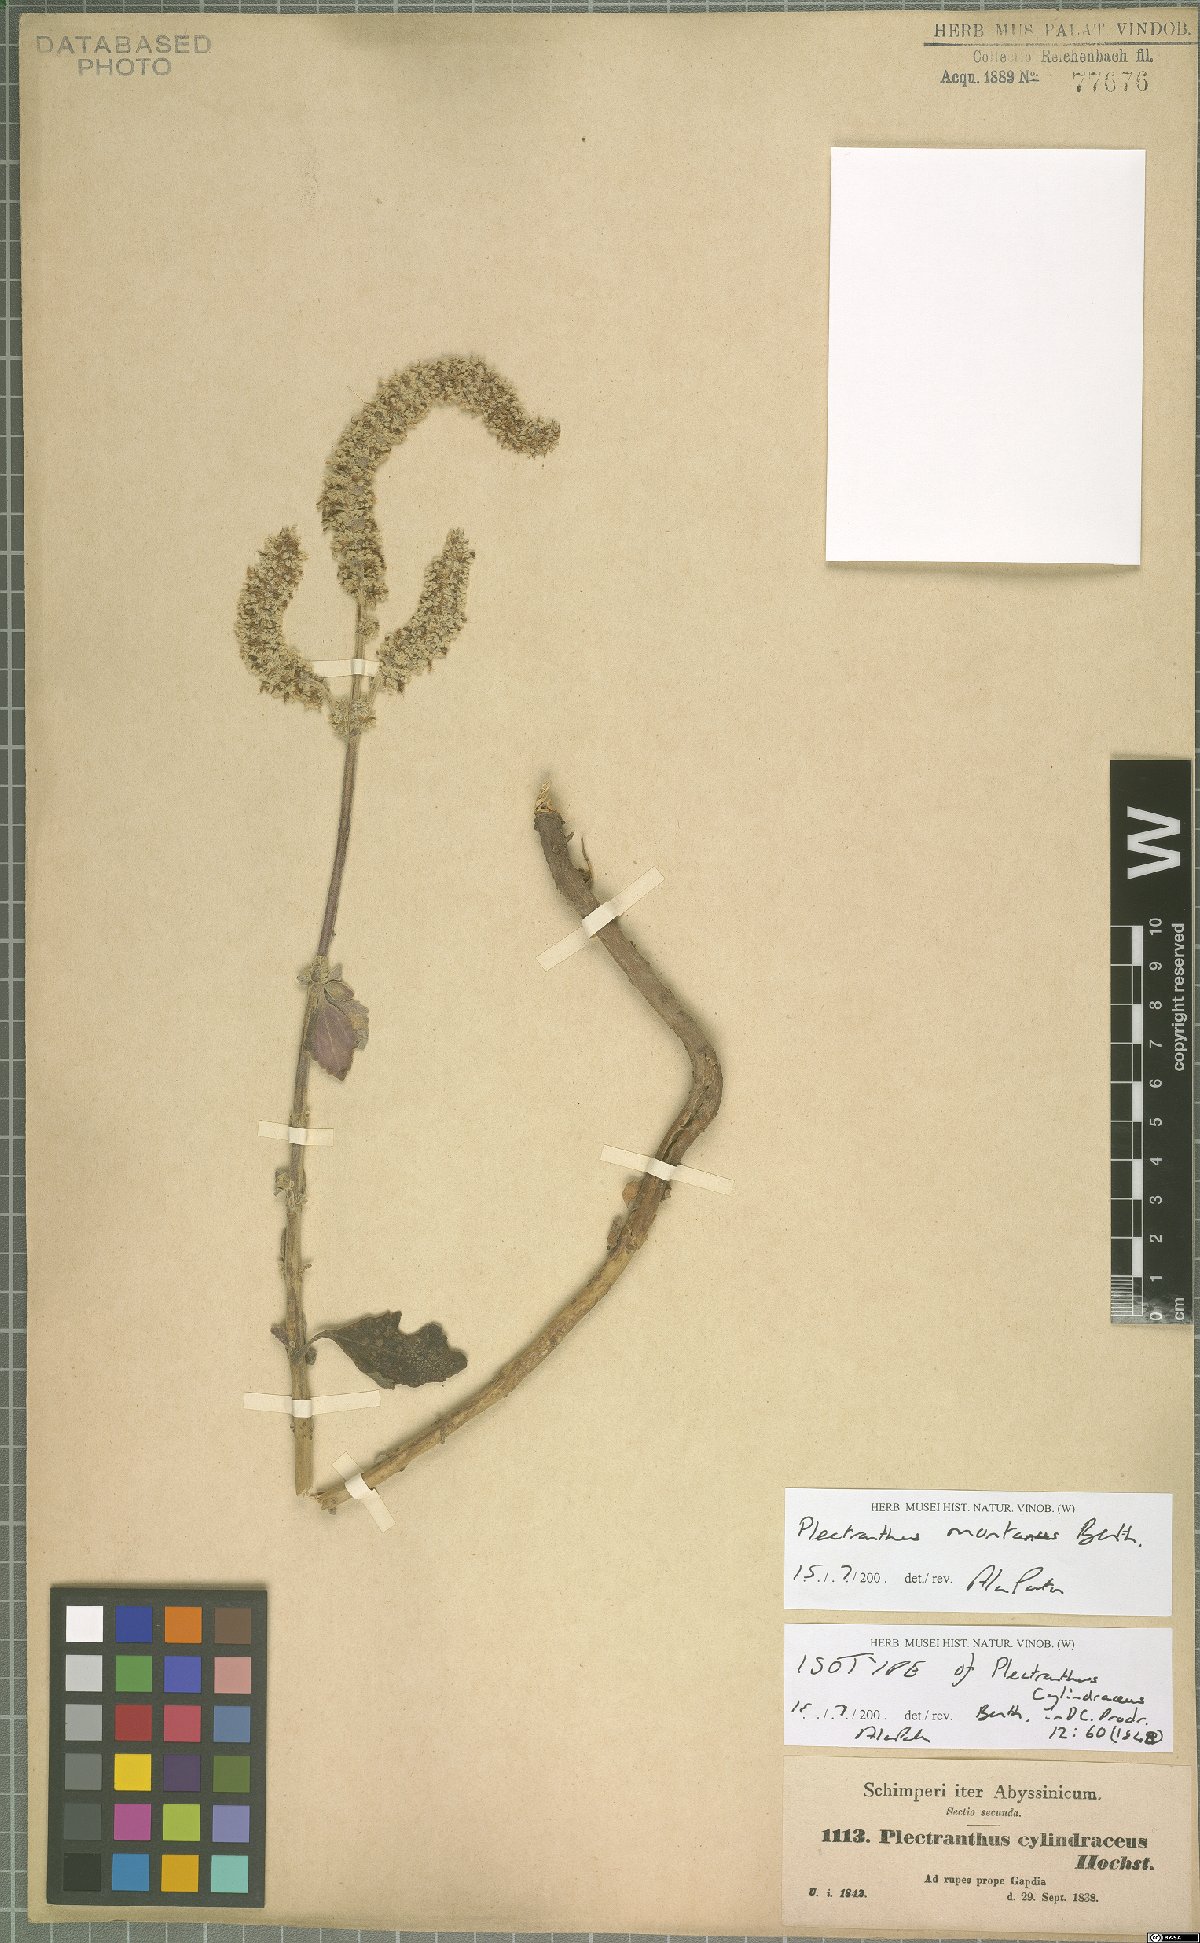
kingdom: Plantae
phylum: Tracheophyta
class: Magnoliopsida
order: Lamiales
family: Lamiaceae
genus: Coleus
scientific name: Coleus cylindraceus
